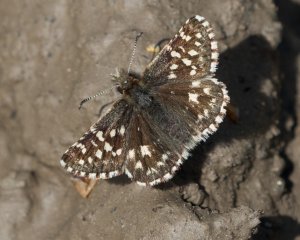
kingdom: Animalia
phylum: Arthropoda
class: Insecta
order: Lepidoptera
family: Hesperiidae
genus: Pyrgus
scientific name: Pyrgus ruralis
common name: Two-banded Checkered-Skipper
